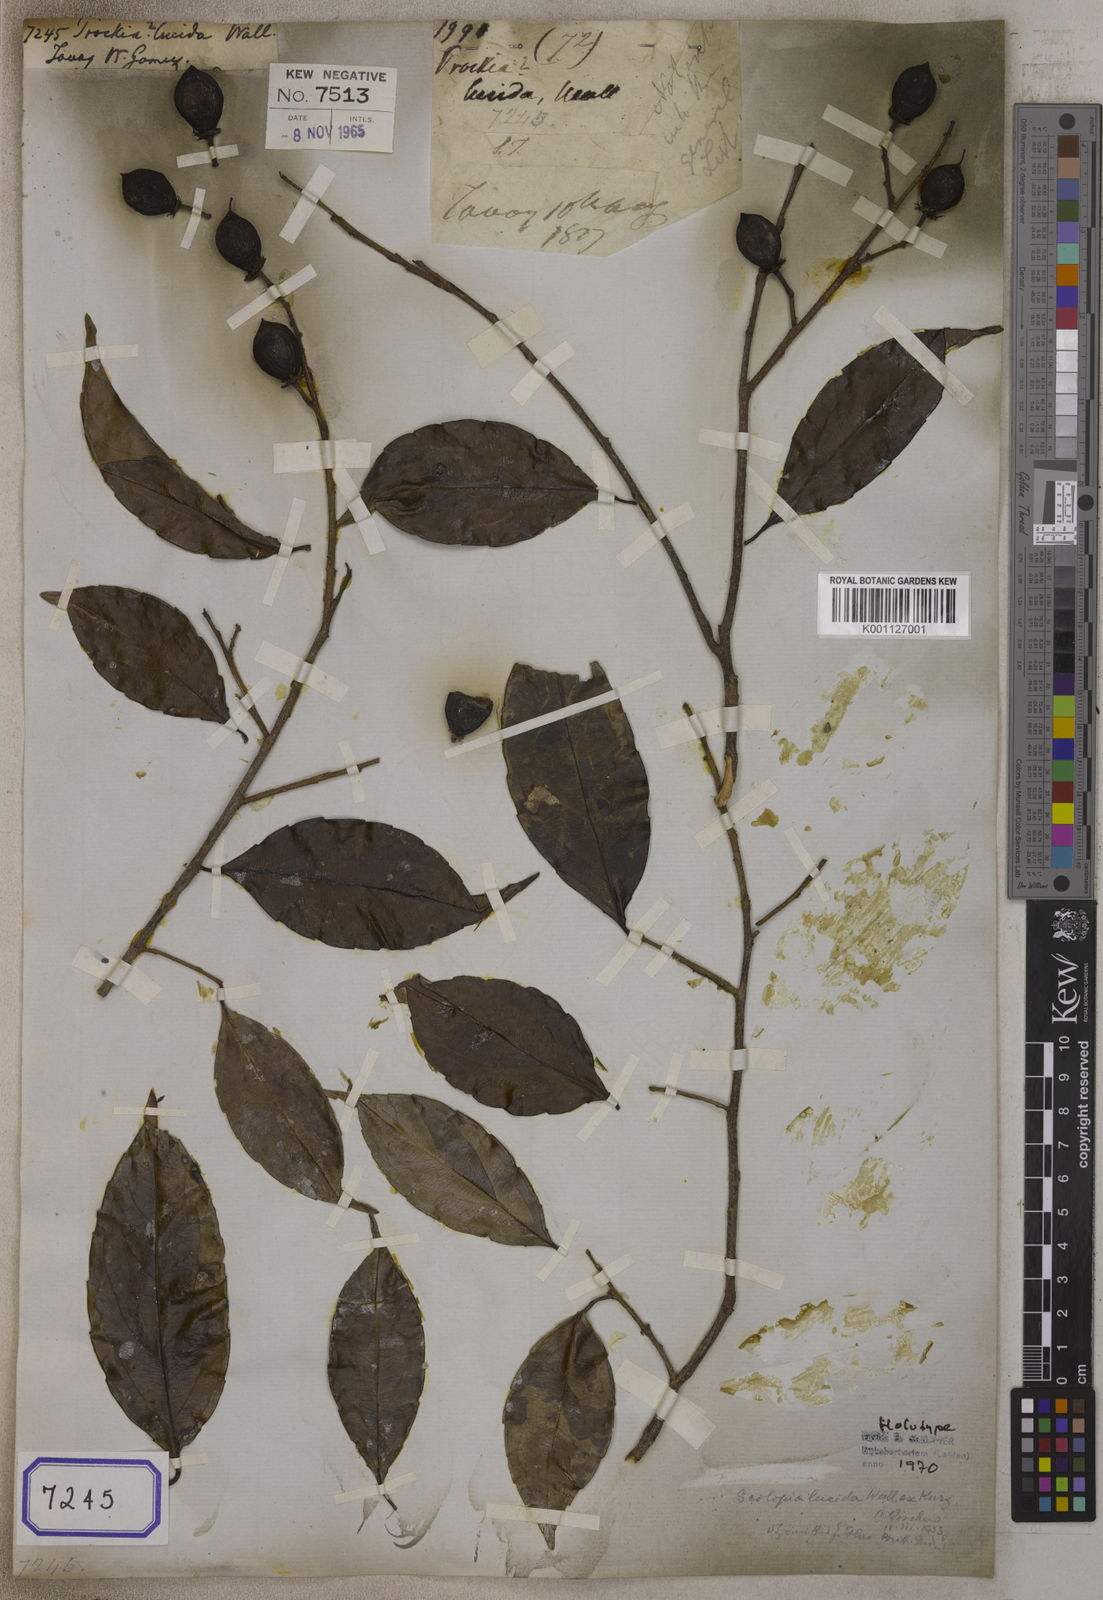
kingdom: Plantae
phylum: Tracheophyta
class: Magnoliopsida
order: Malpighiales
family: Salicaceae
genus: Scolopia
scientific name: Scolopia lucida
